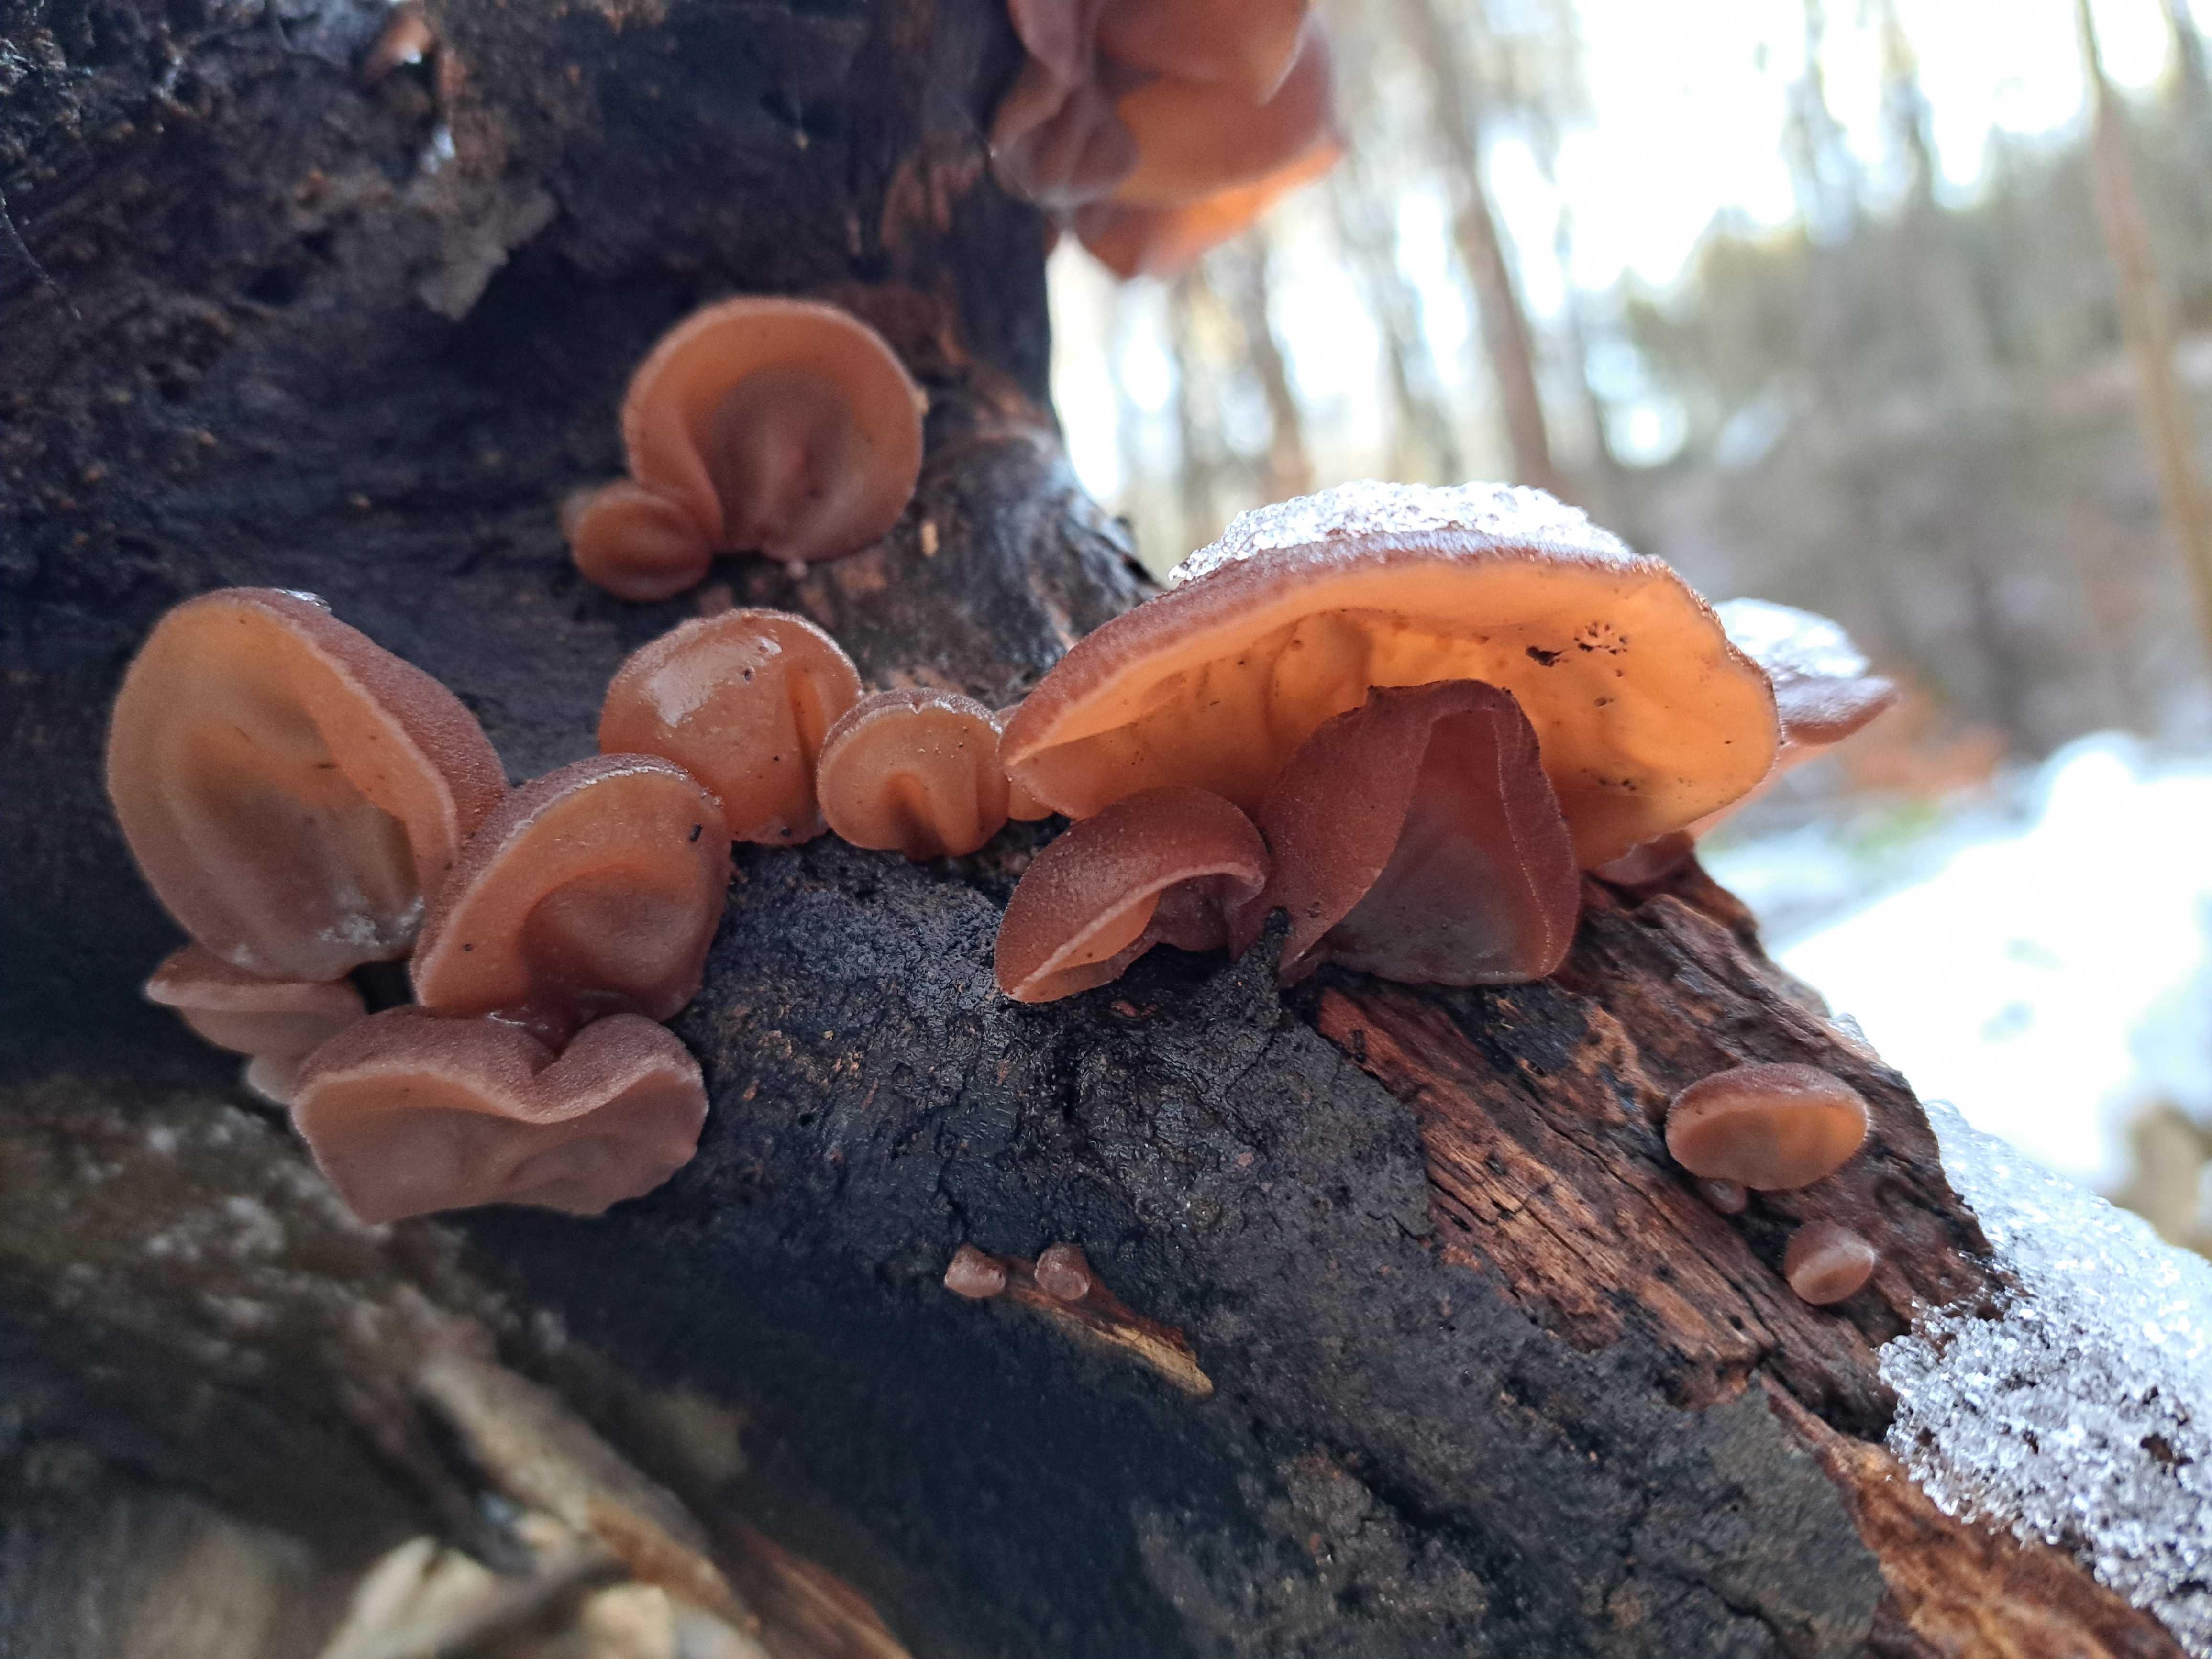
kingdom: Fungi
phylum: Basidiomycota
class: Agaricomycetes
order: Auriculariales
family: Auriculariaceae
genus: Auricularia
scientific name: Auricularia auricula-judae
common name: almindelig judasøre
